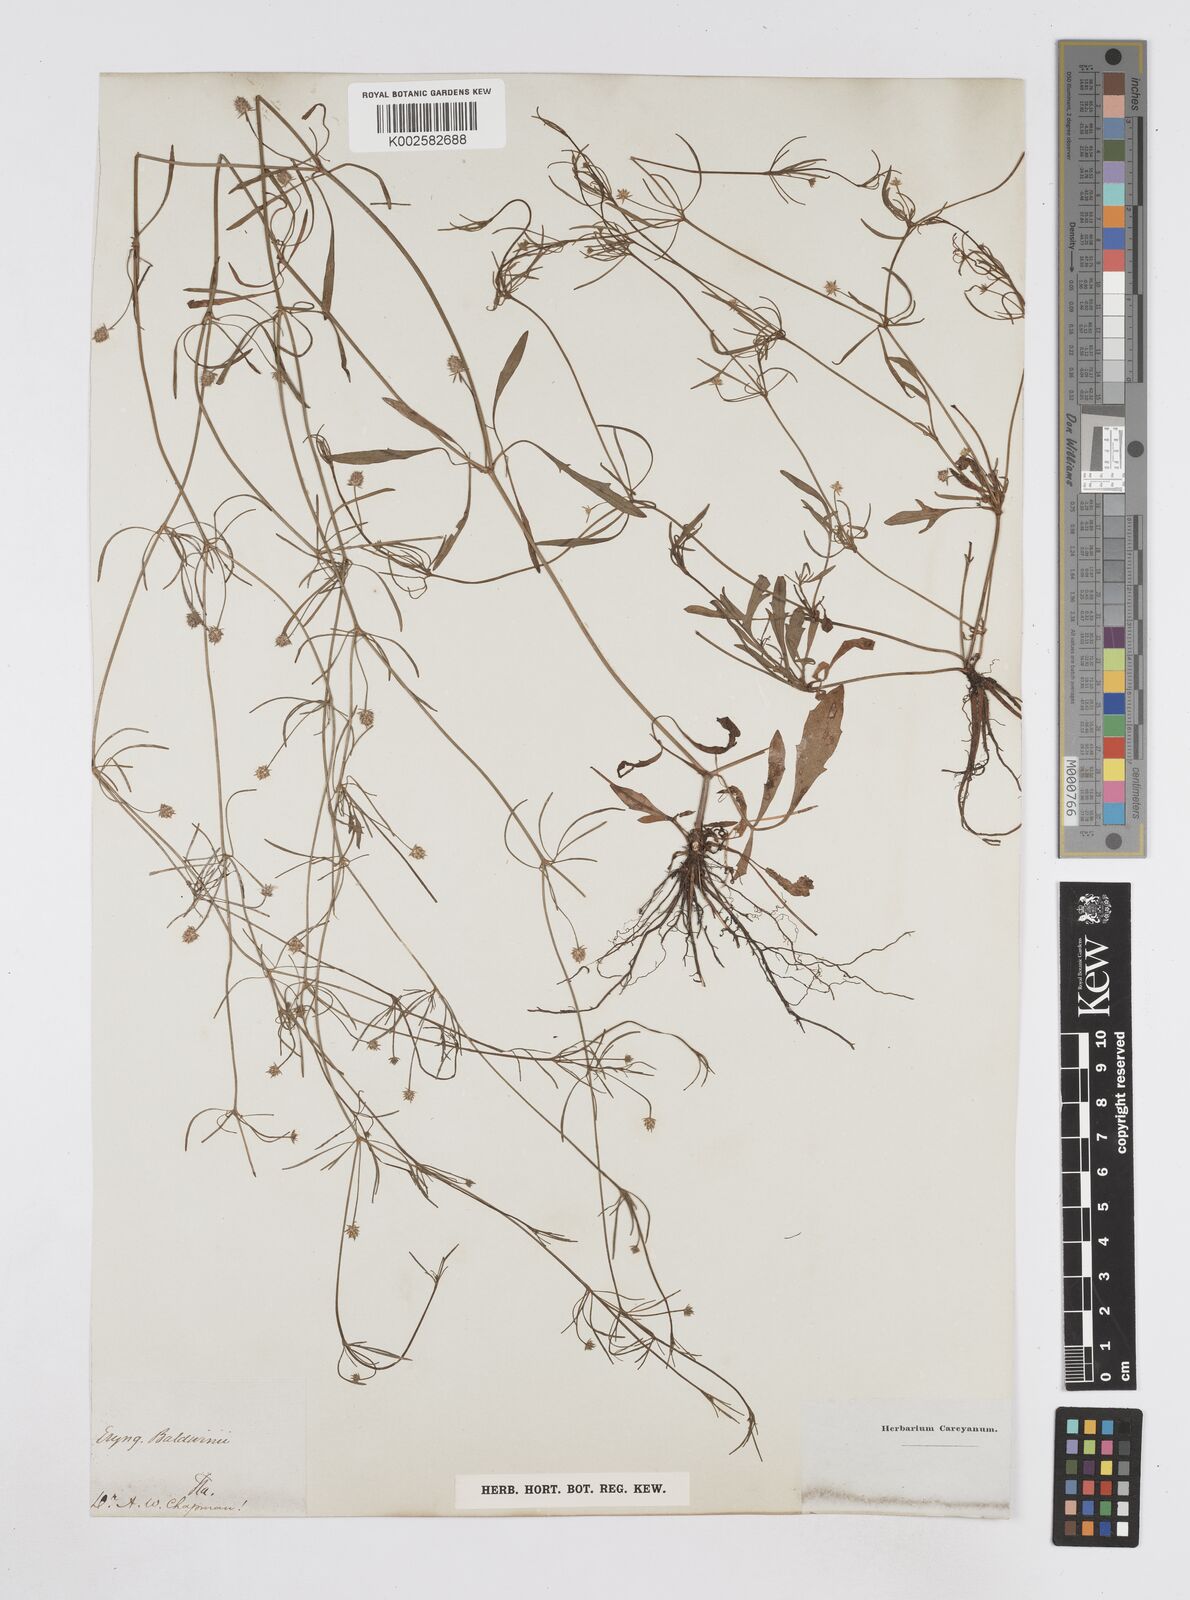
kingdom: Plantae
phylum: Tracheophyta
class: Magnoliopsida
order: Apiales
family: Apiaceae
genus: Eryngium
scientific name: Eryngium baldwinii
